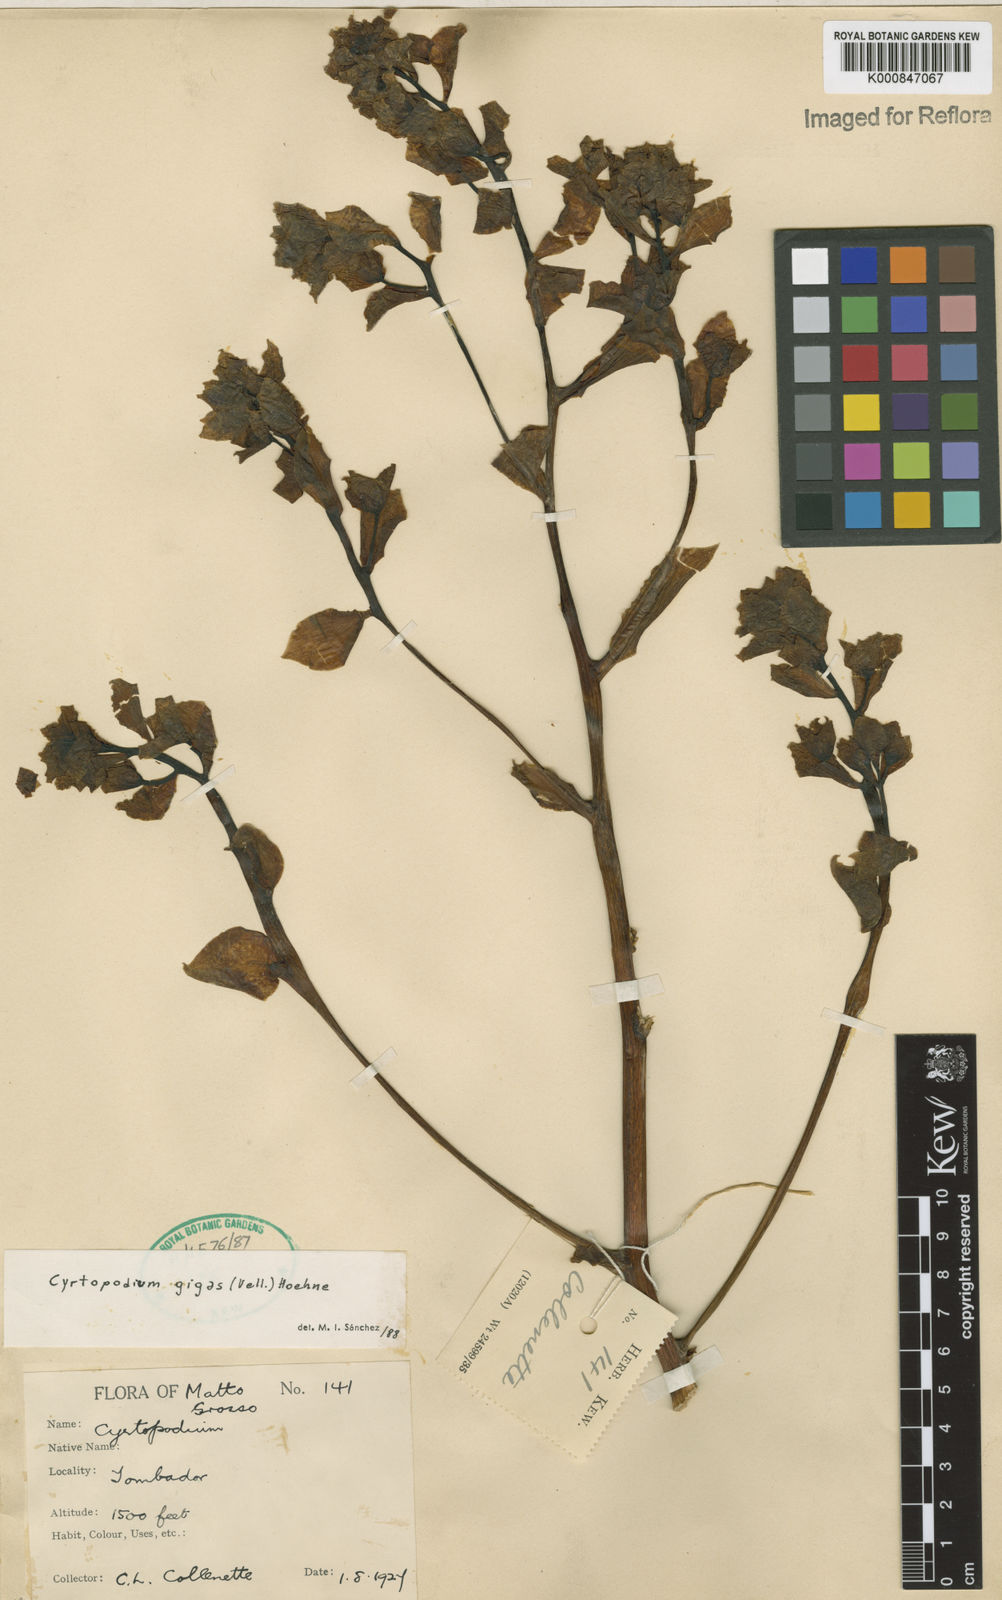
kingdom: Plantae
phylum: Tracheophyta
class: Liliopsida
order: Asparagales
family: Orchidaceae
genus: Cyrtopodium
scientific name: Cyrtopodium gigas
